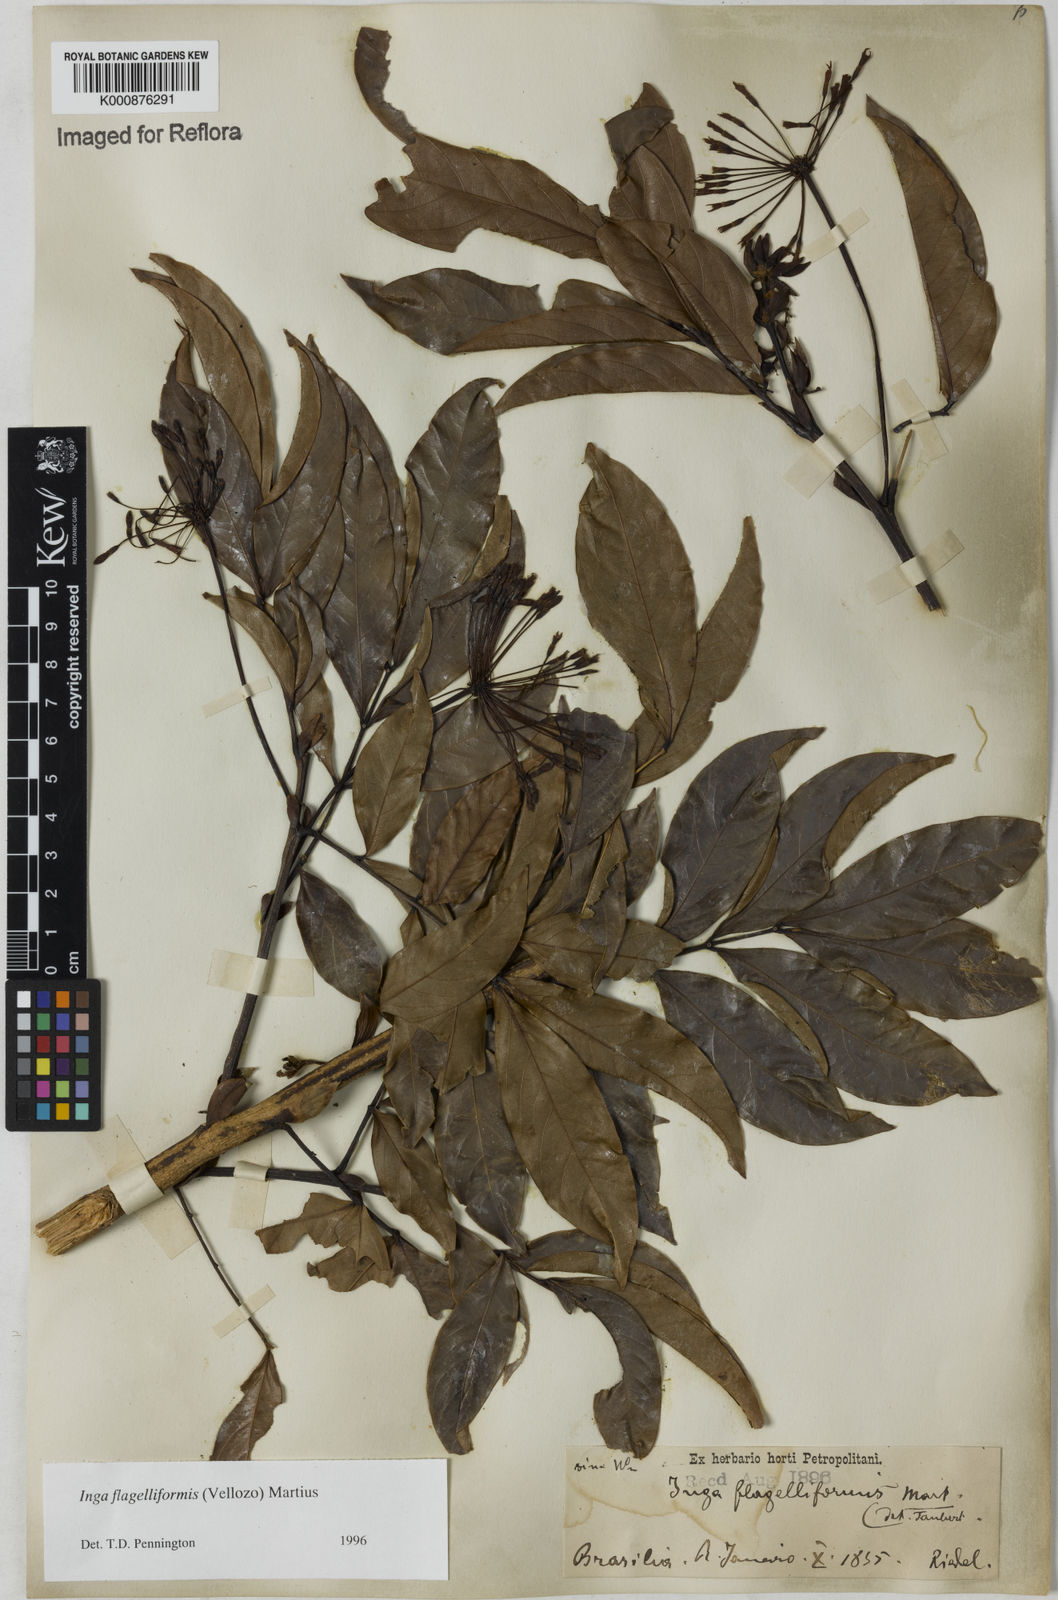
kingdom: Plantae
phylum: Tracheophyta
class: Magnoliopsida
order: Fabales
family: Fabaceae
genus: Inga
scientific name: Inga flagelliformis
